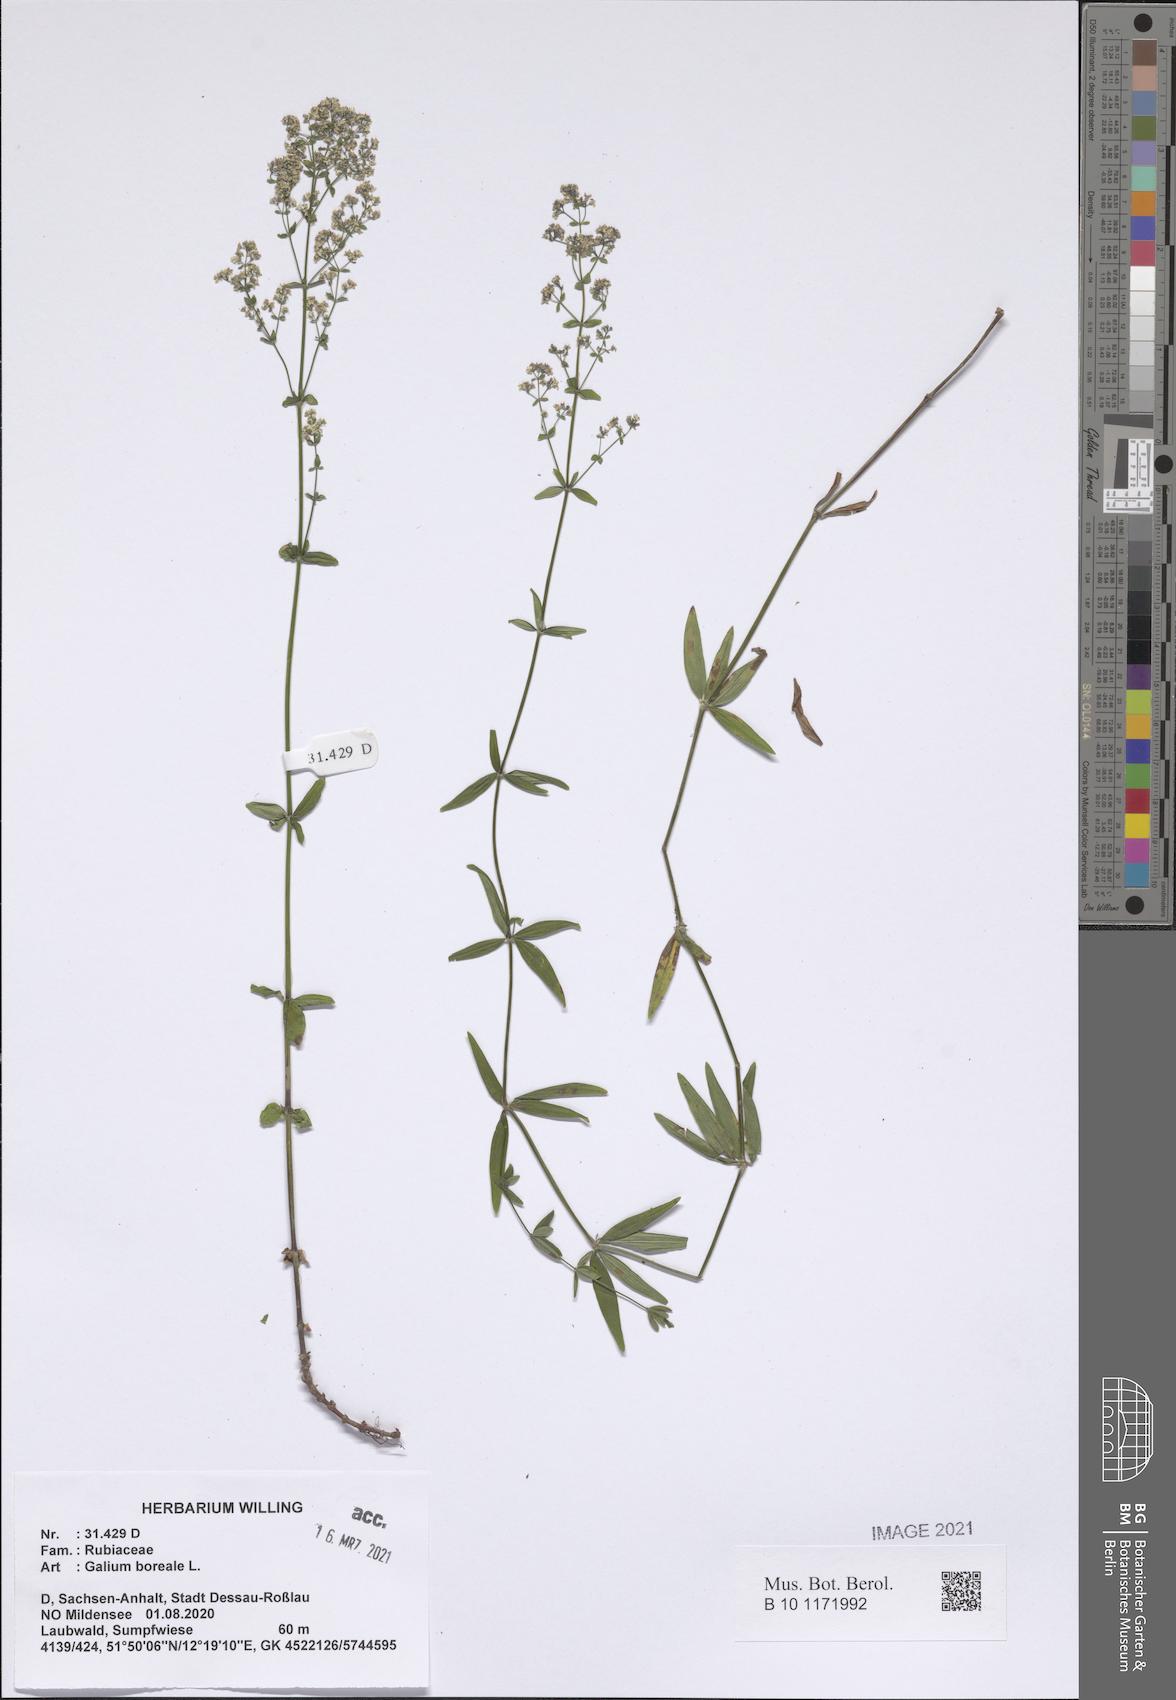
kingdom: Plantae
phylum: Tracheophyta
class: Magnoliopsida
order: Gentianales
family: Rubiaceae
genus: Galium
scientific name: Galium boreale
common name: Northern bedstraw
